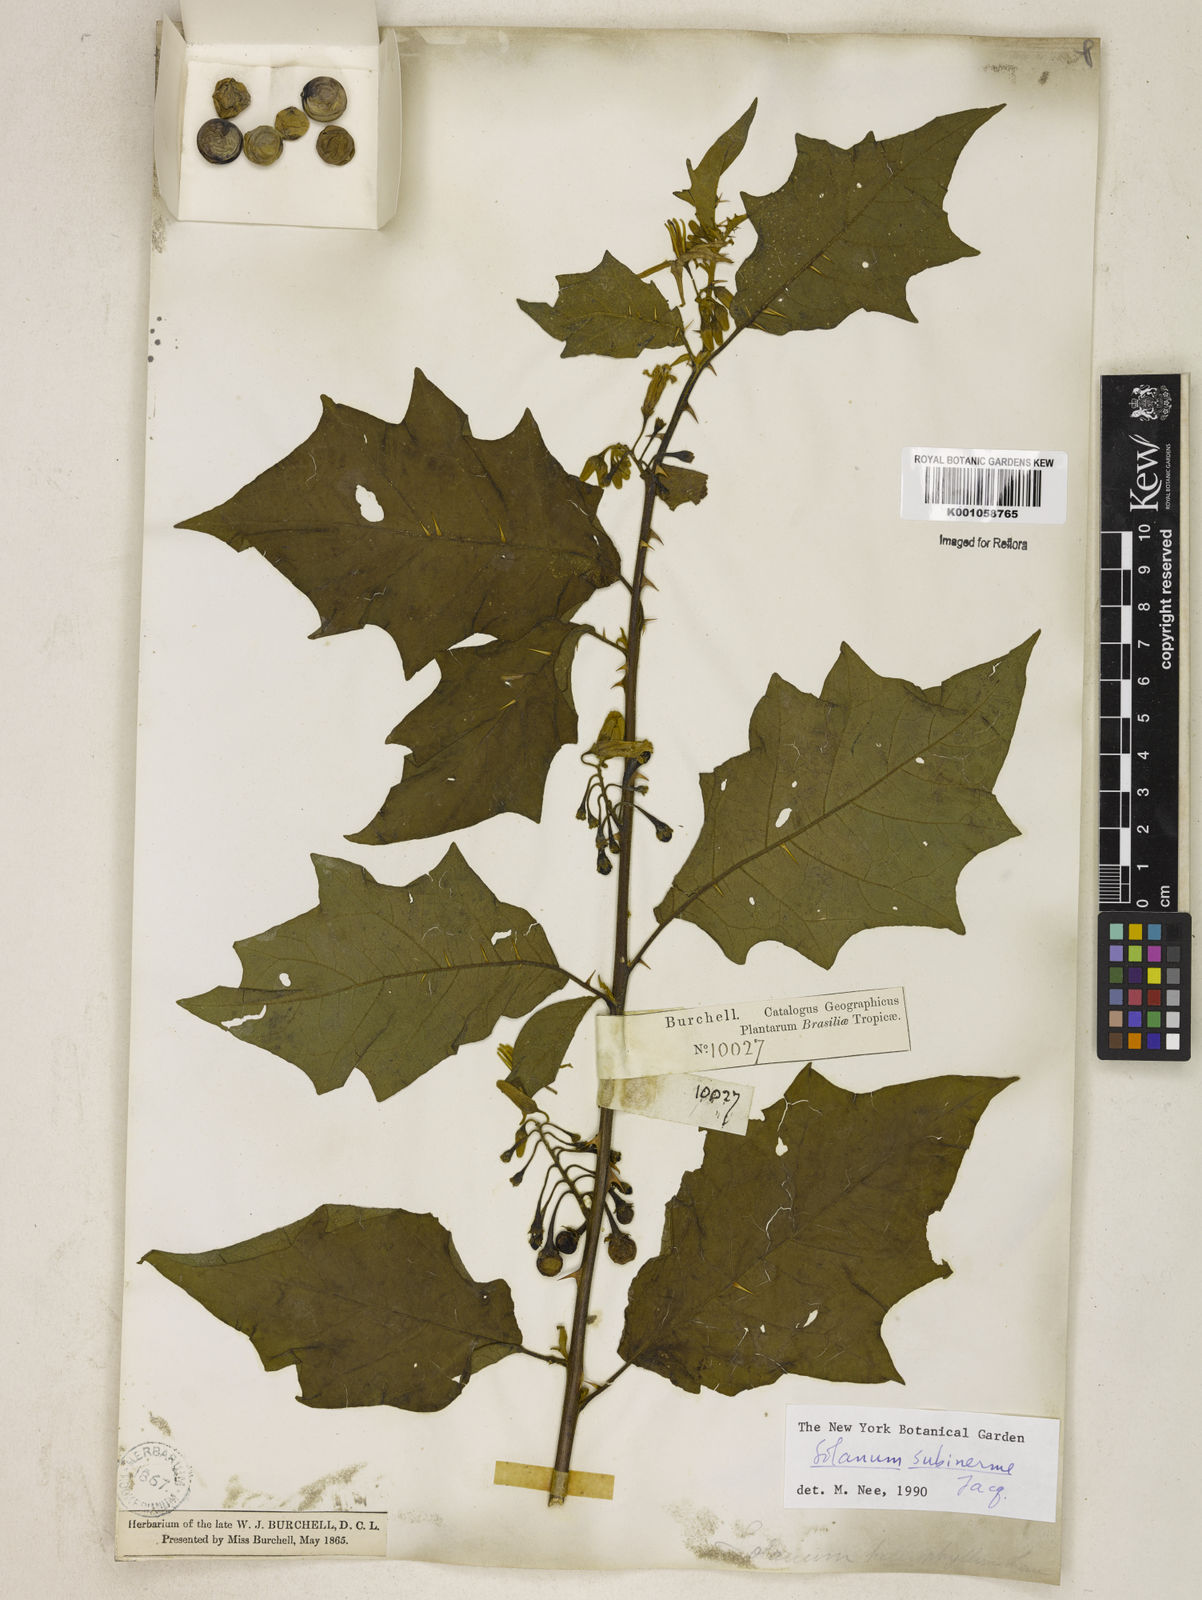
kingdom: Plantae
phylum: Tracheophyta
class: Magnoliopsida
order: Solanales
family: Solanaceae
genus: Solanum
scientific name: Solanum subinerme
